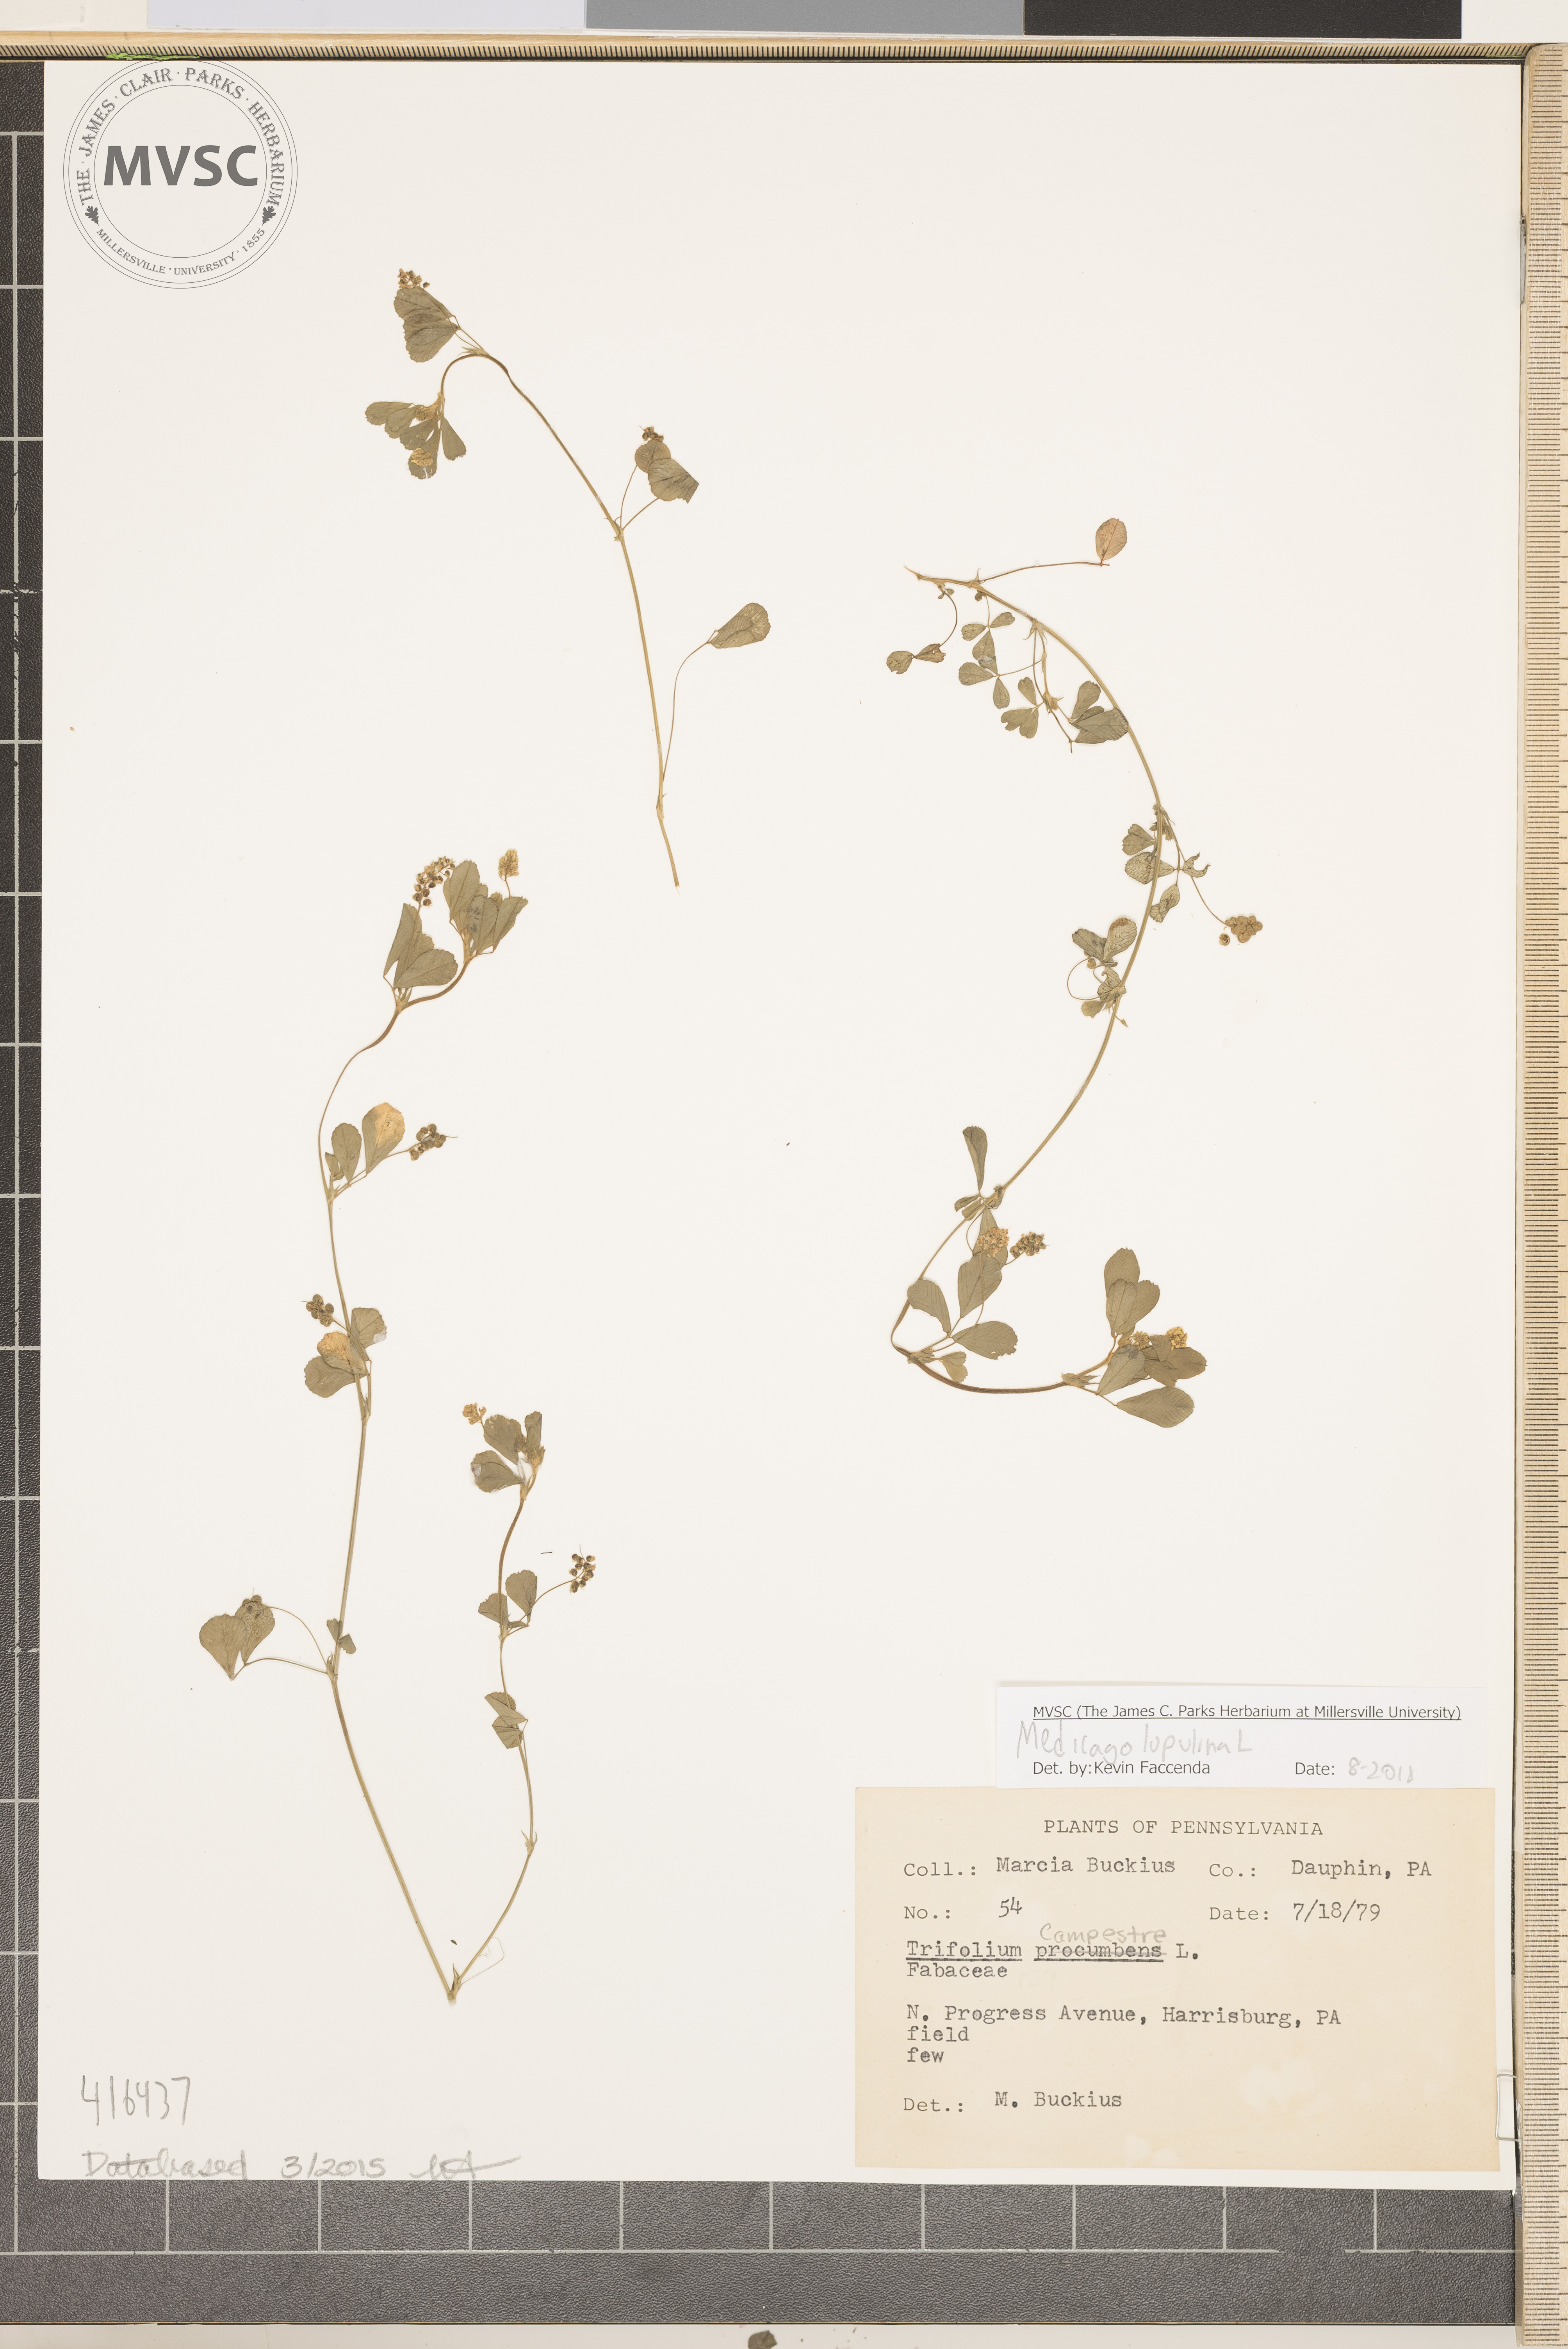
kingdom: Plantae
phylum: Tracheophyta
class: Magnoliopsida
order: Fabales
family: Fabaceae
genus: Medicago
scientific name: Medicago lupulina
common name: Hop Trefoil
